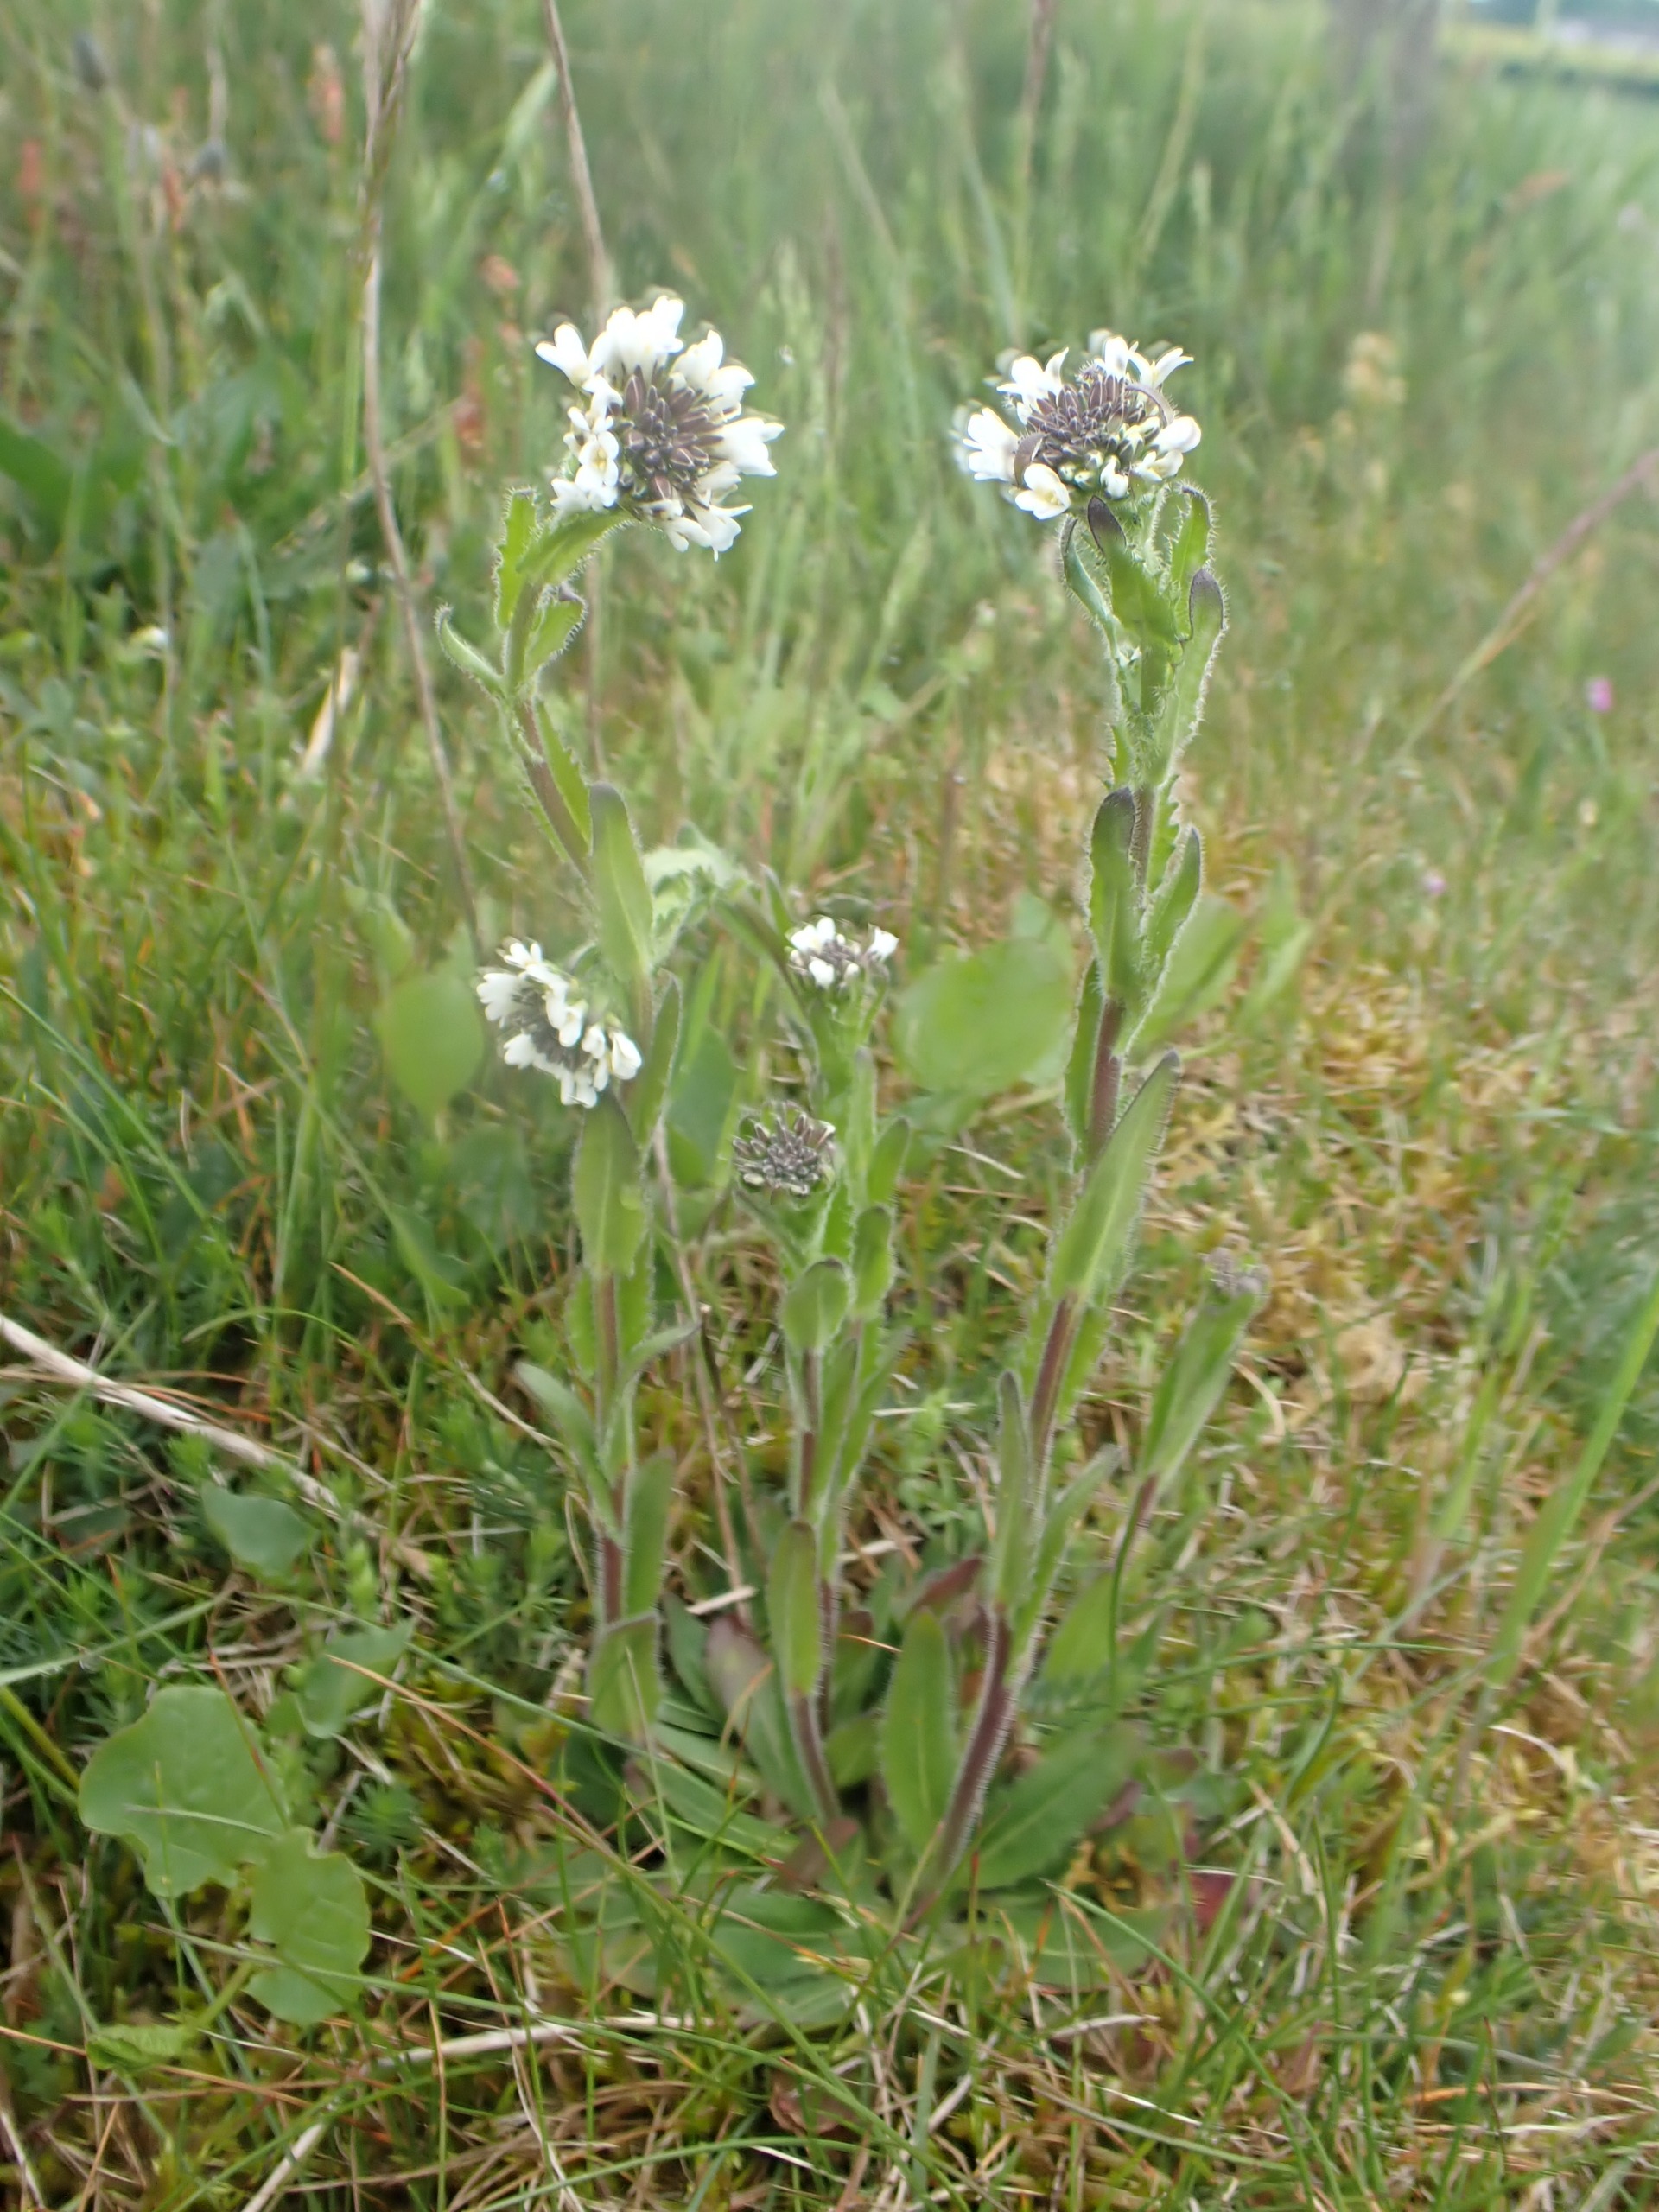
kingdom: Plantae
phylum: Tracheophyta
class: Magnoliopsida
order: Brassicales
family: Brassicaceae
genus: Arabis
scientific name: Arabis hirsuta
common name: Stivhåret kalkkarse
